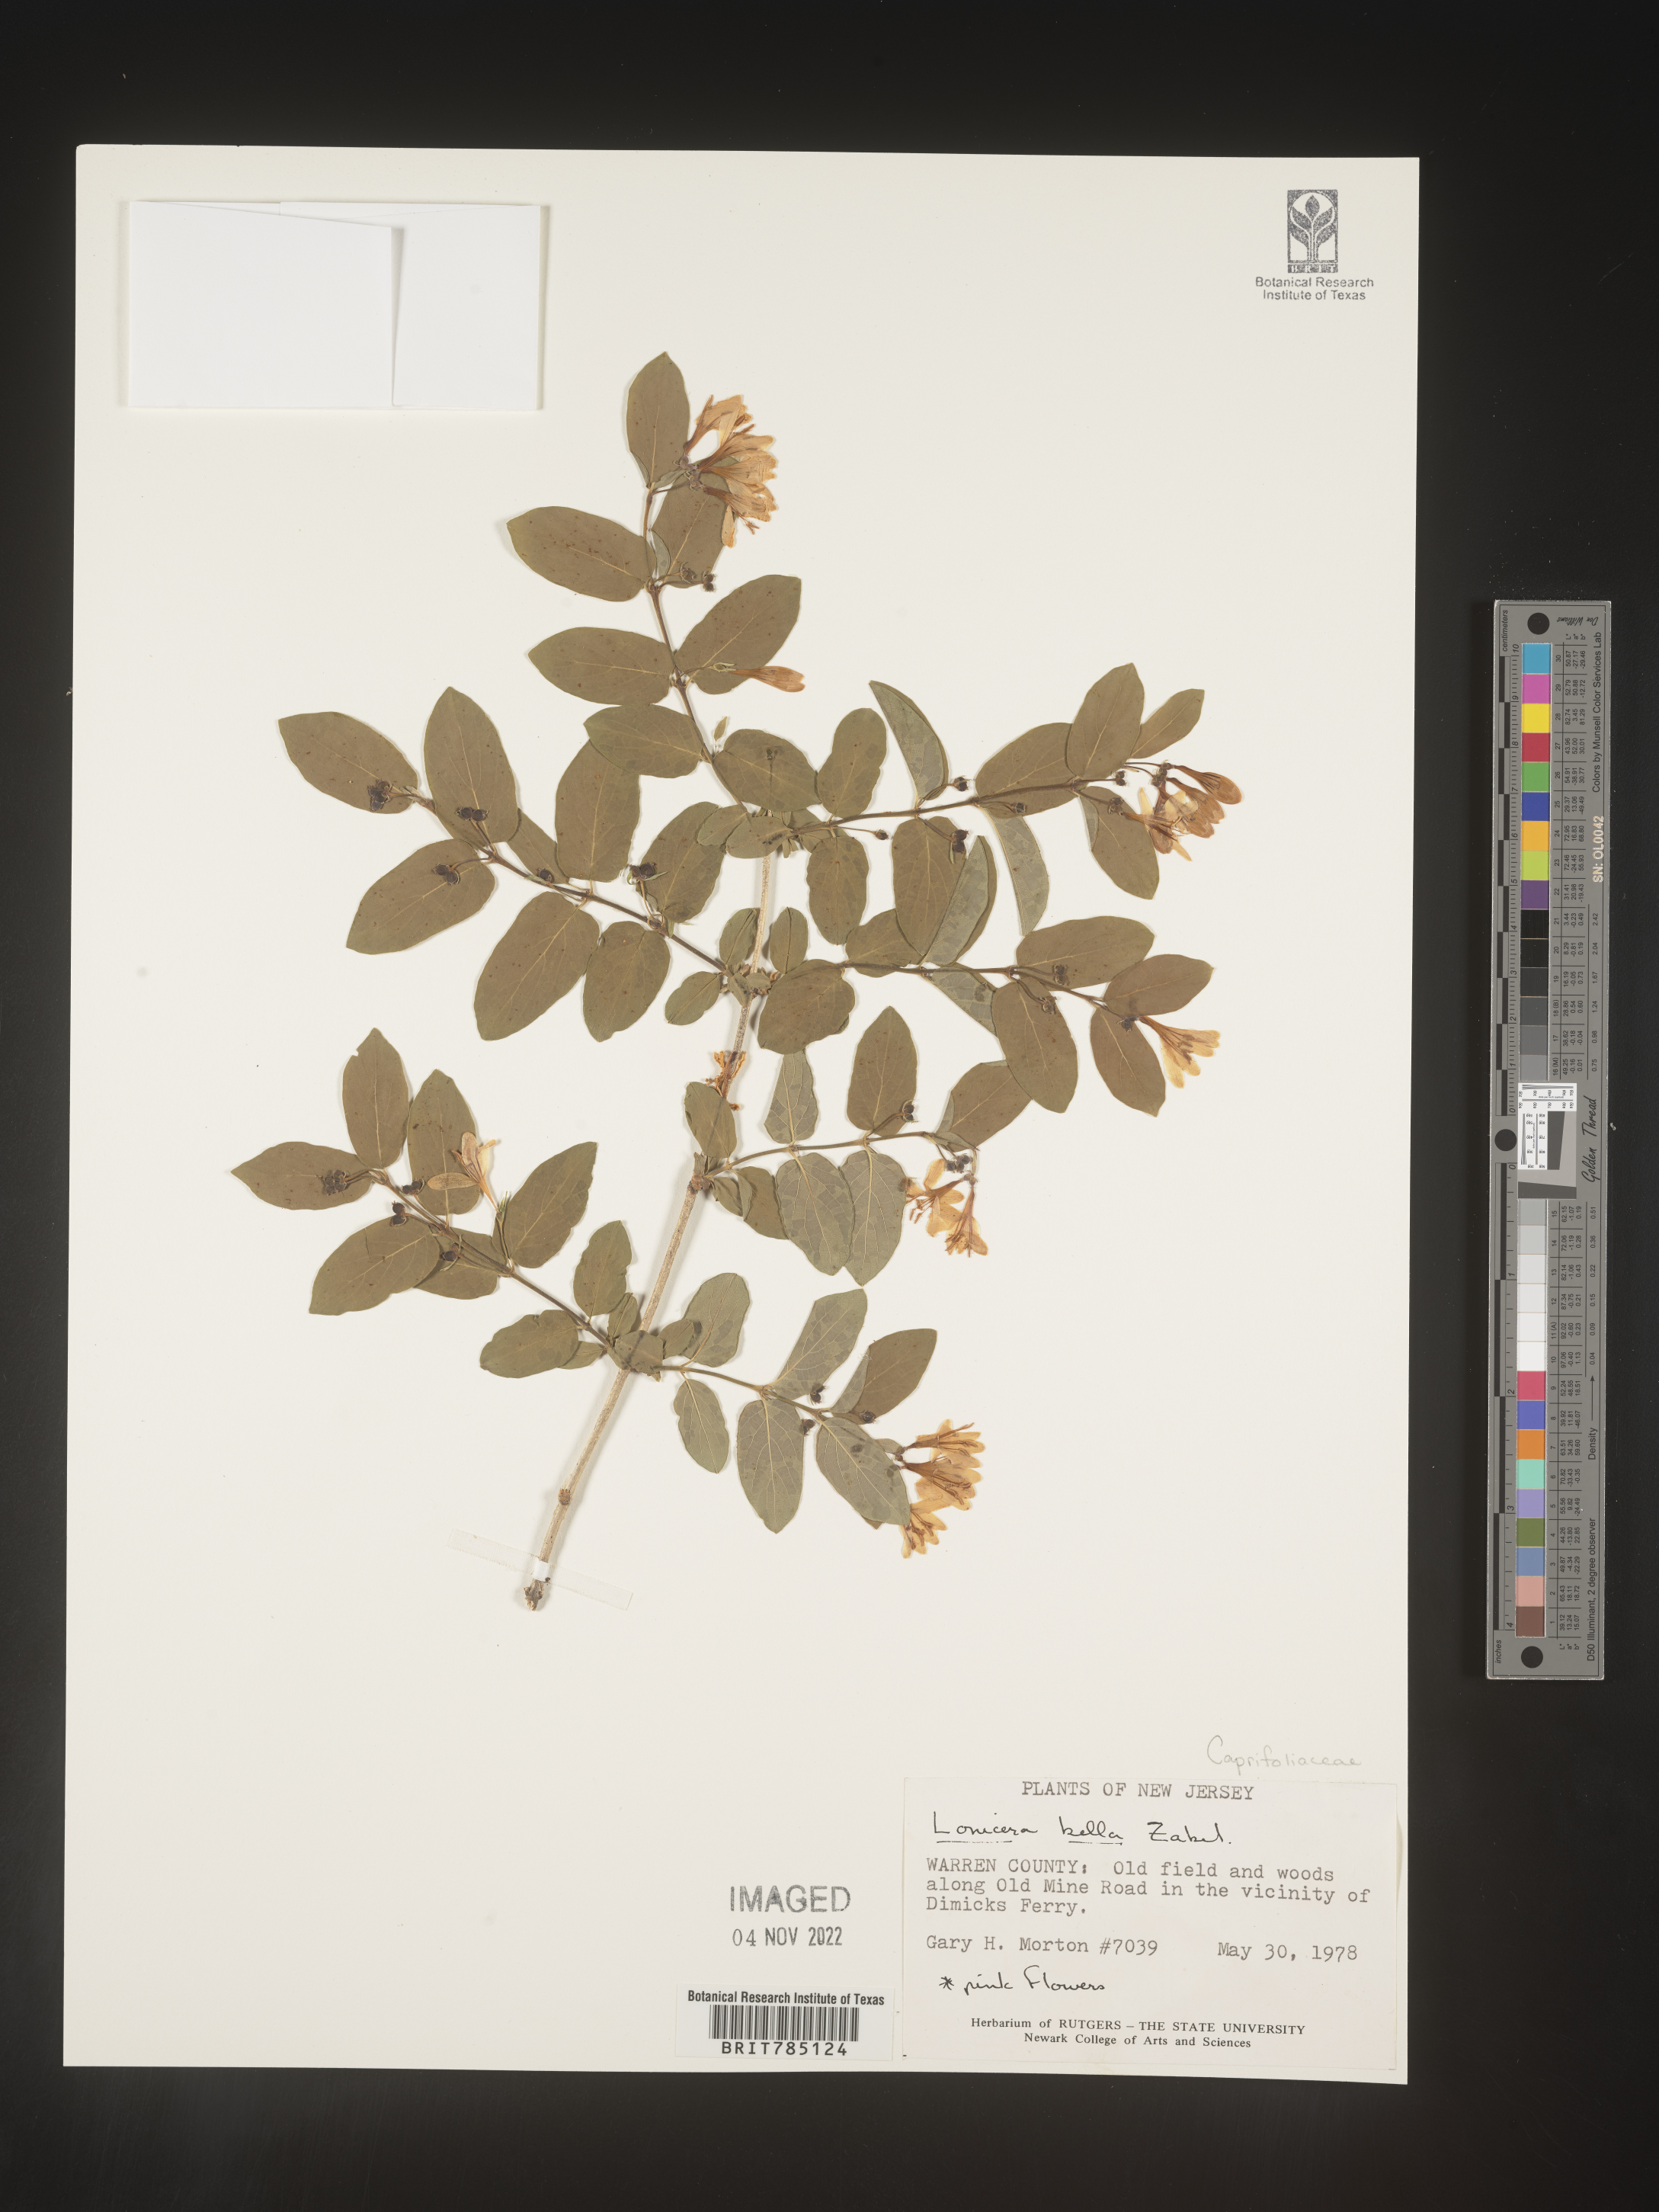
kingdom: Plantae
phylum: Tracheophyta
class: Magnoliopsida
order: Dipsacales
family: Caprifoliaceae
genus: Lonicera
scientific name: Lonicera bella
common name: Bell's honeysuckle
